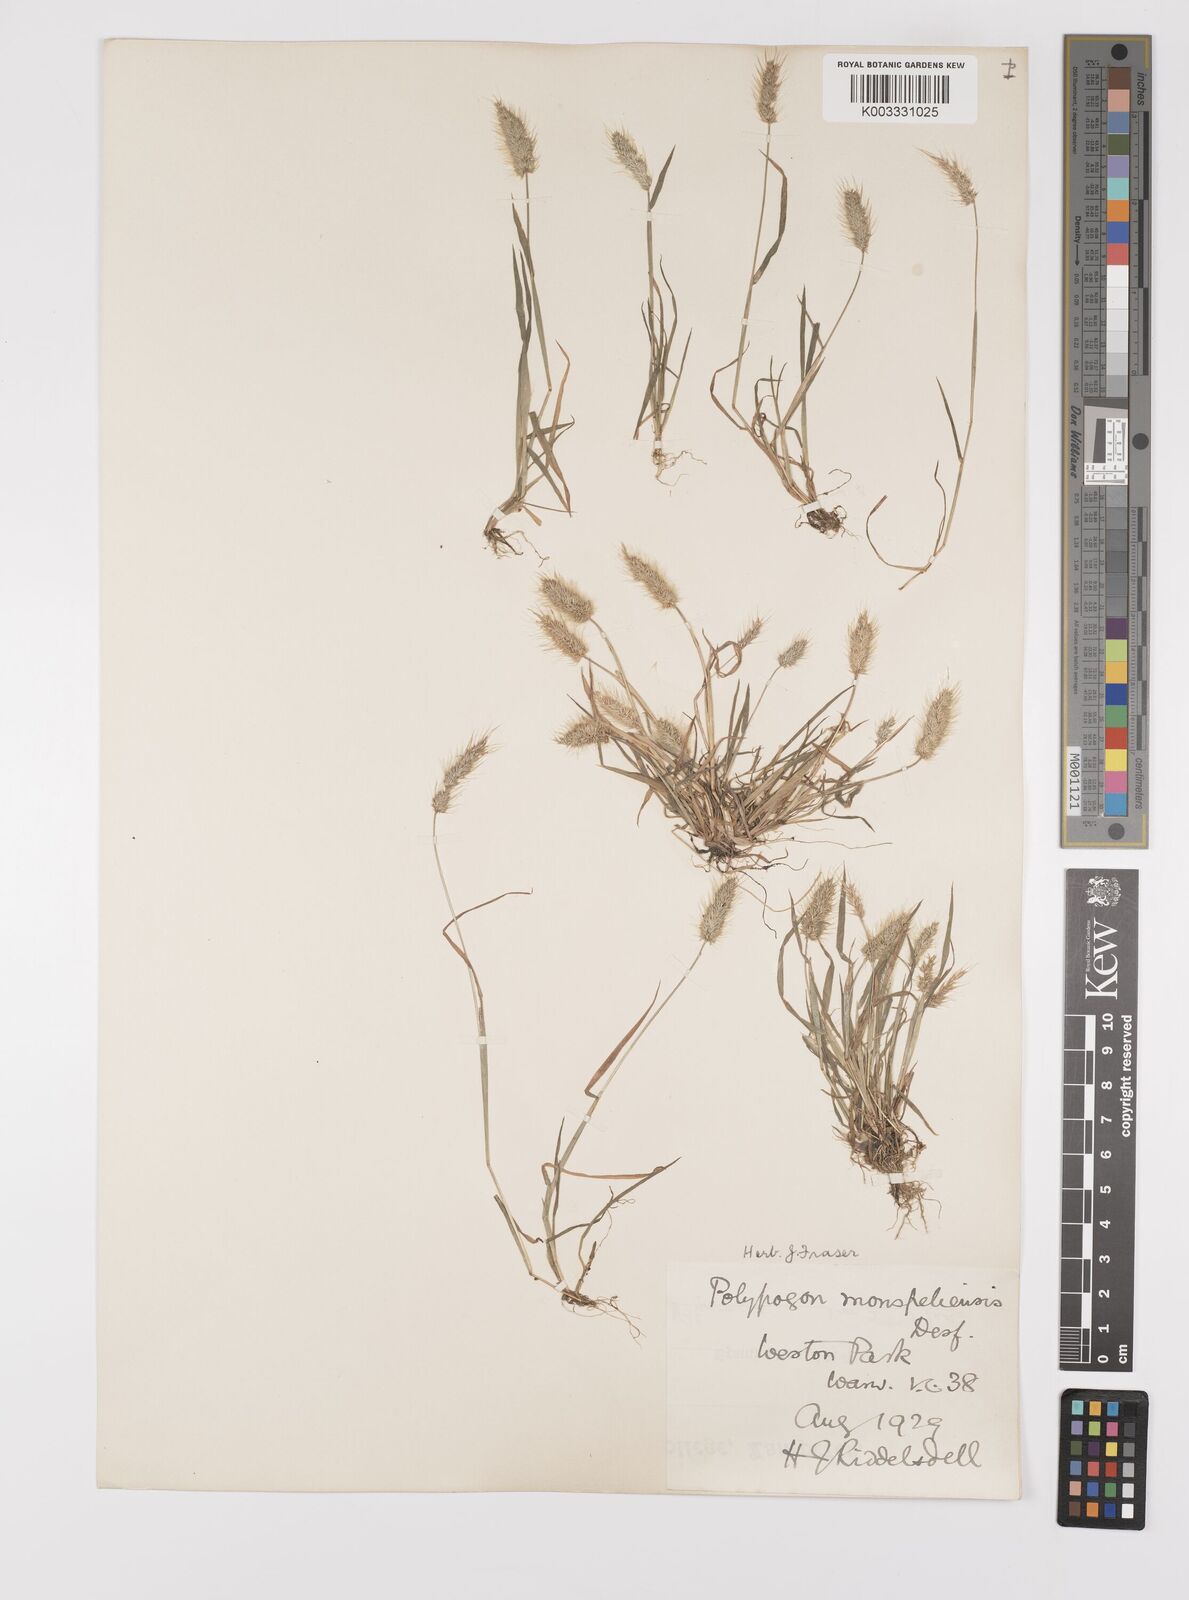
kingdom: Plantae
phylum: Tracheophyta
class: Liliopsida
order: Poales
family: Poaceae
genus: Polypogon
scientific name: Polypogon monspeliensis
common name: Annual rabbitsfoot grass
